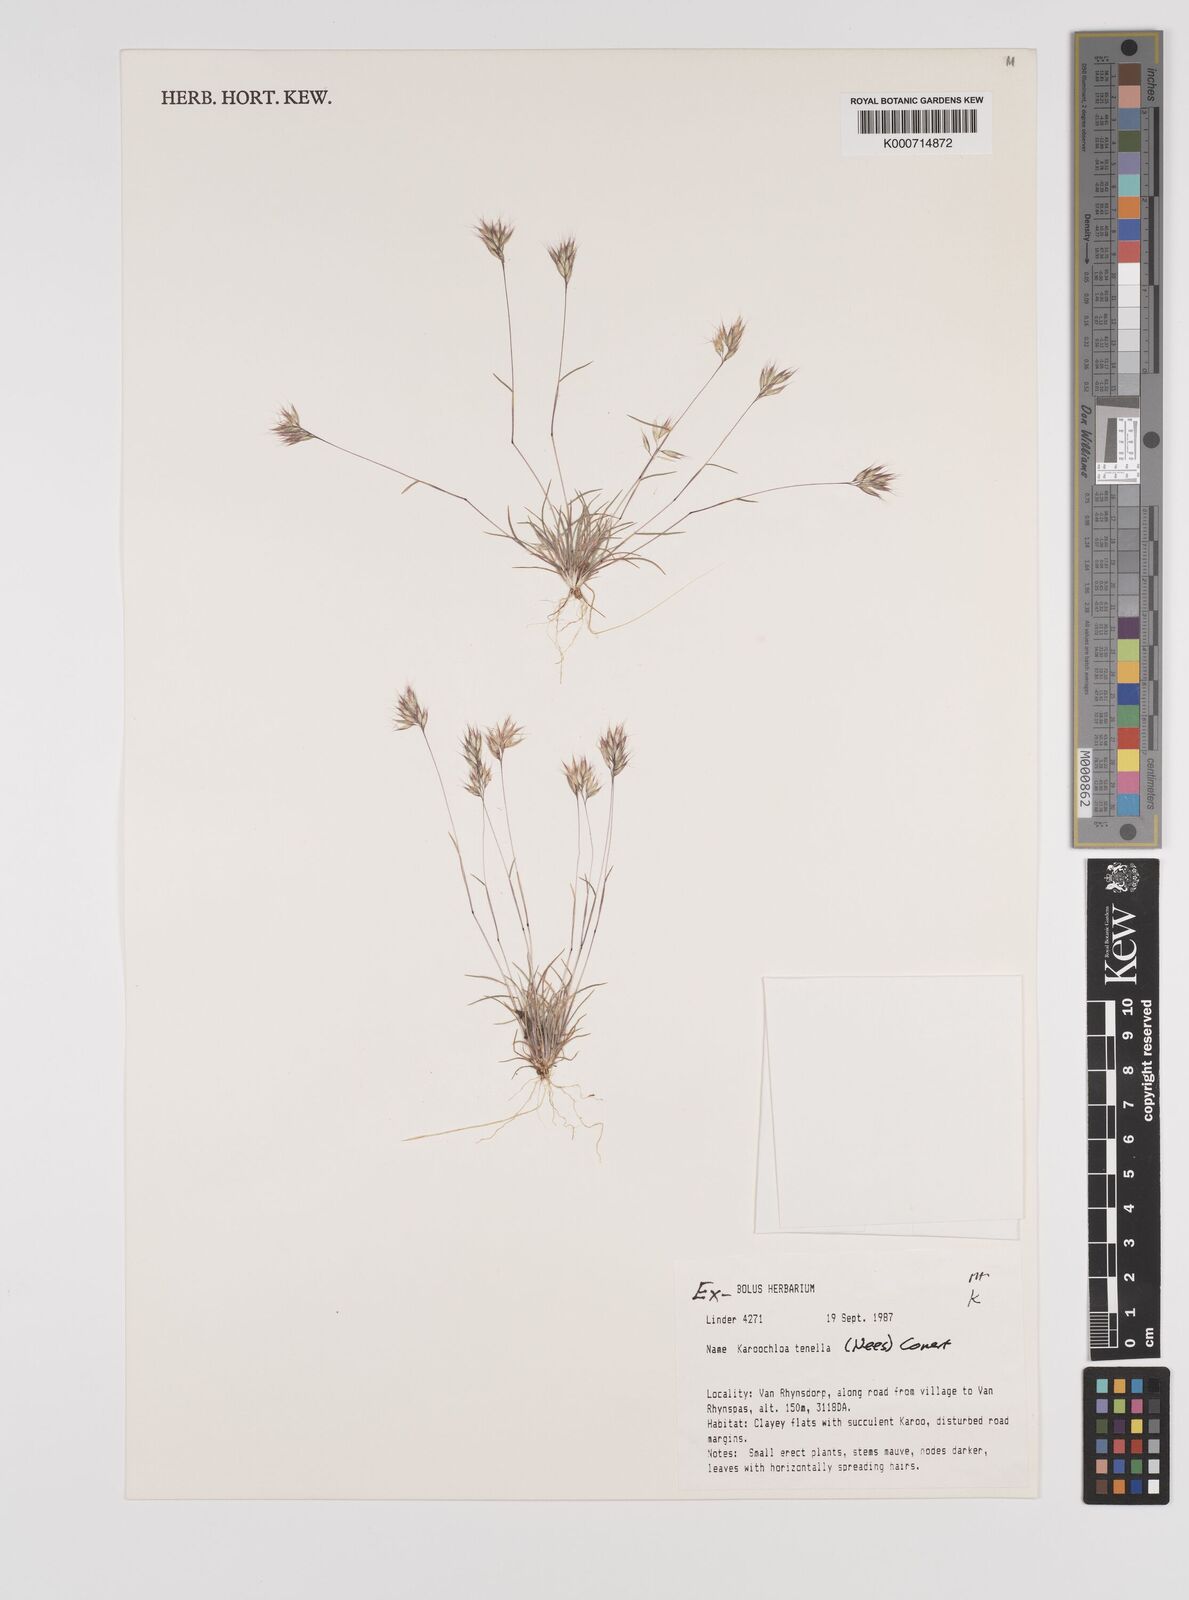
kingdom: Plantae
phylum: Tracheophyta
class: Liliopsida
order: Poales
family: Poaceae
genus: Rytidosperma
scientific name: Rytidosperma
